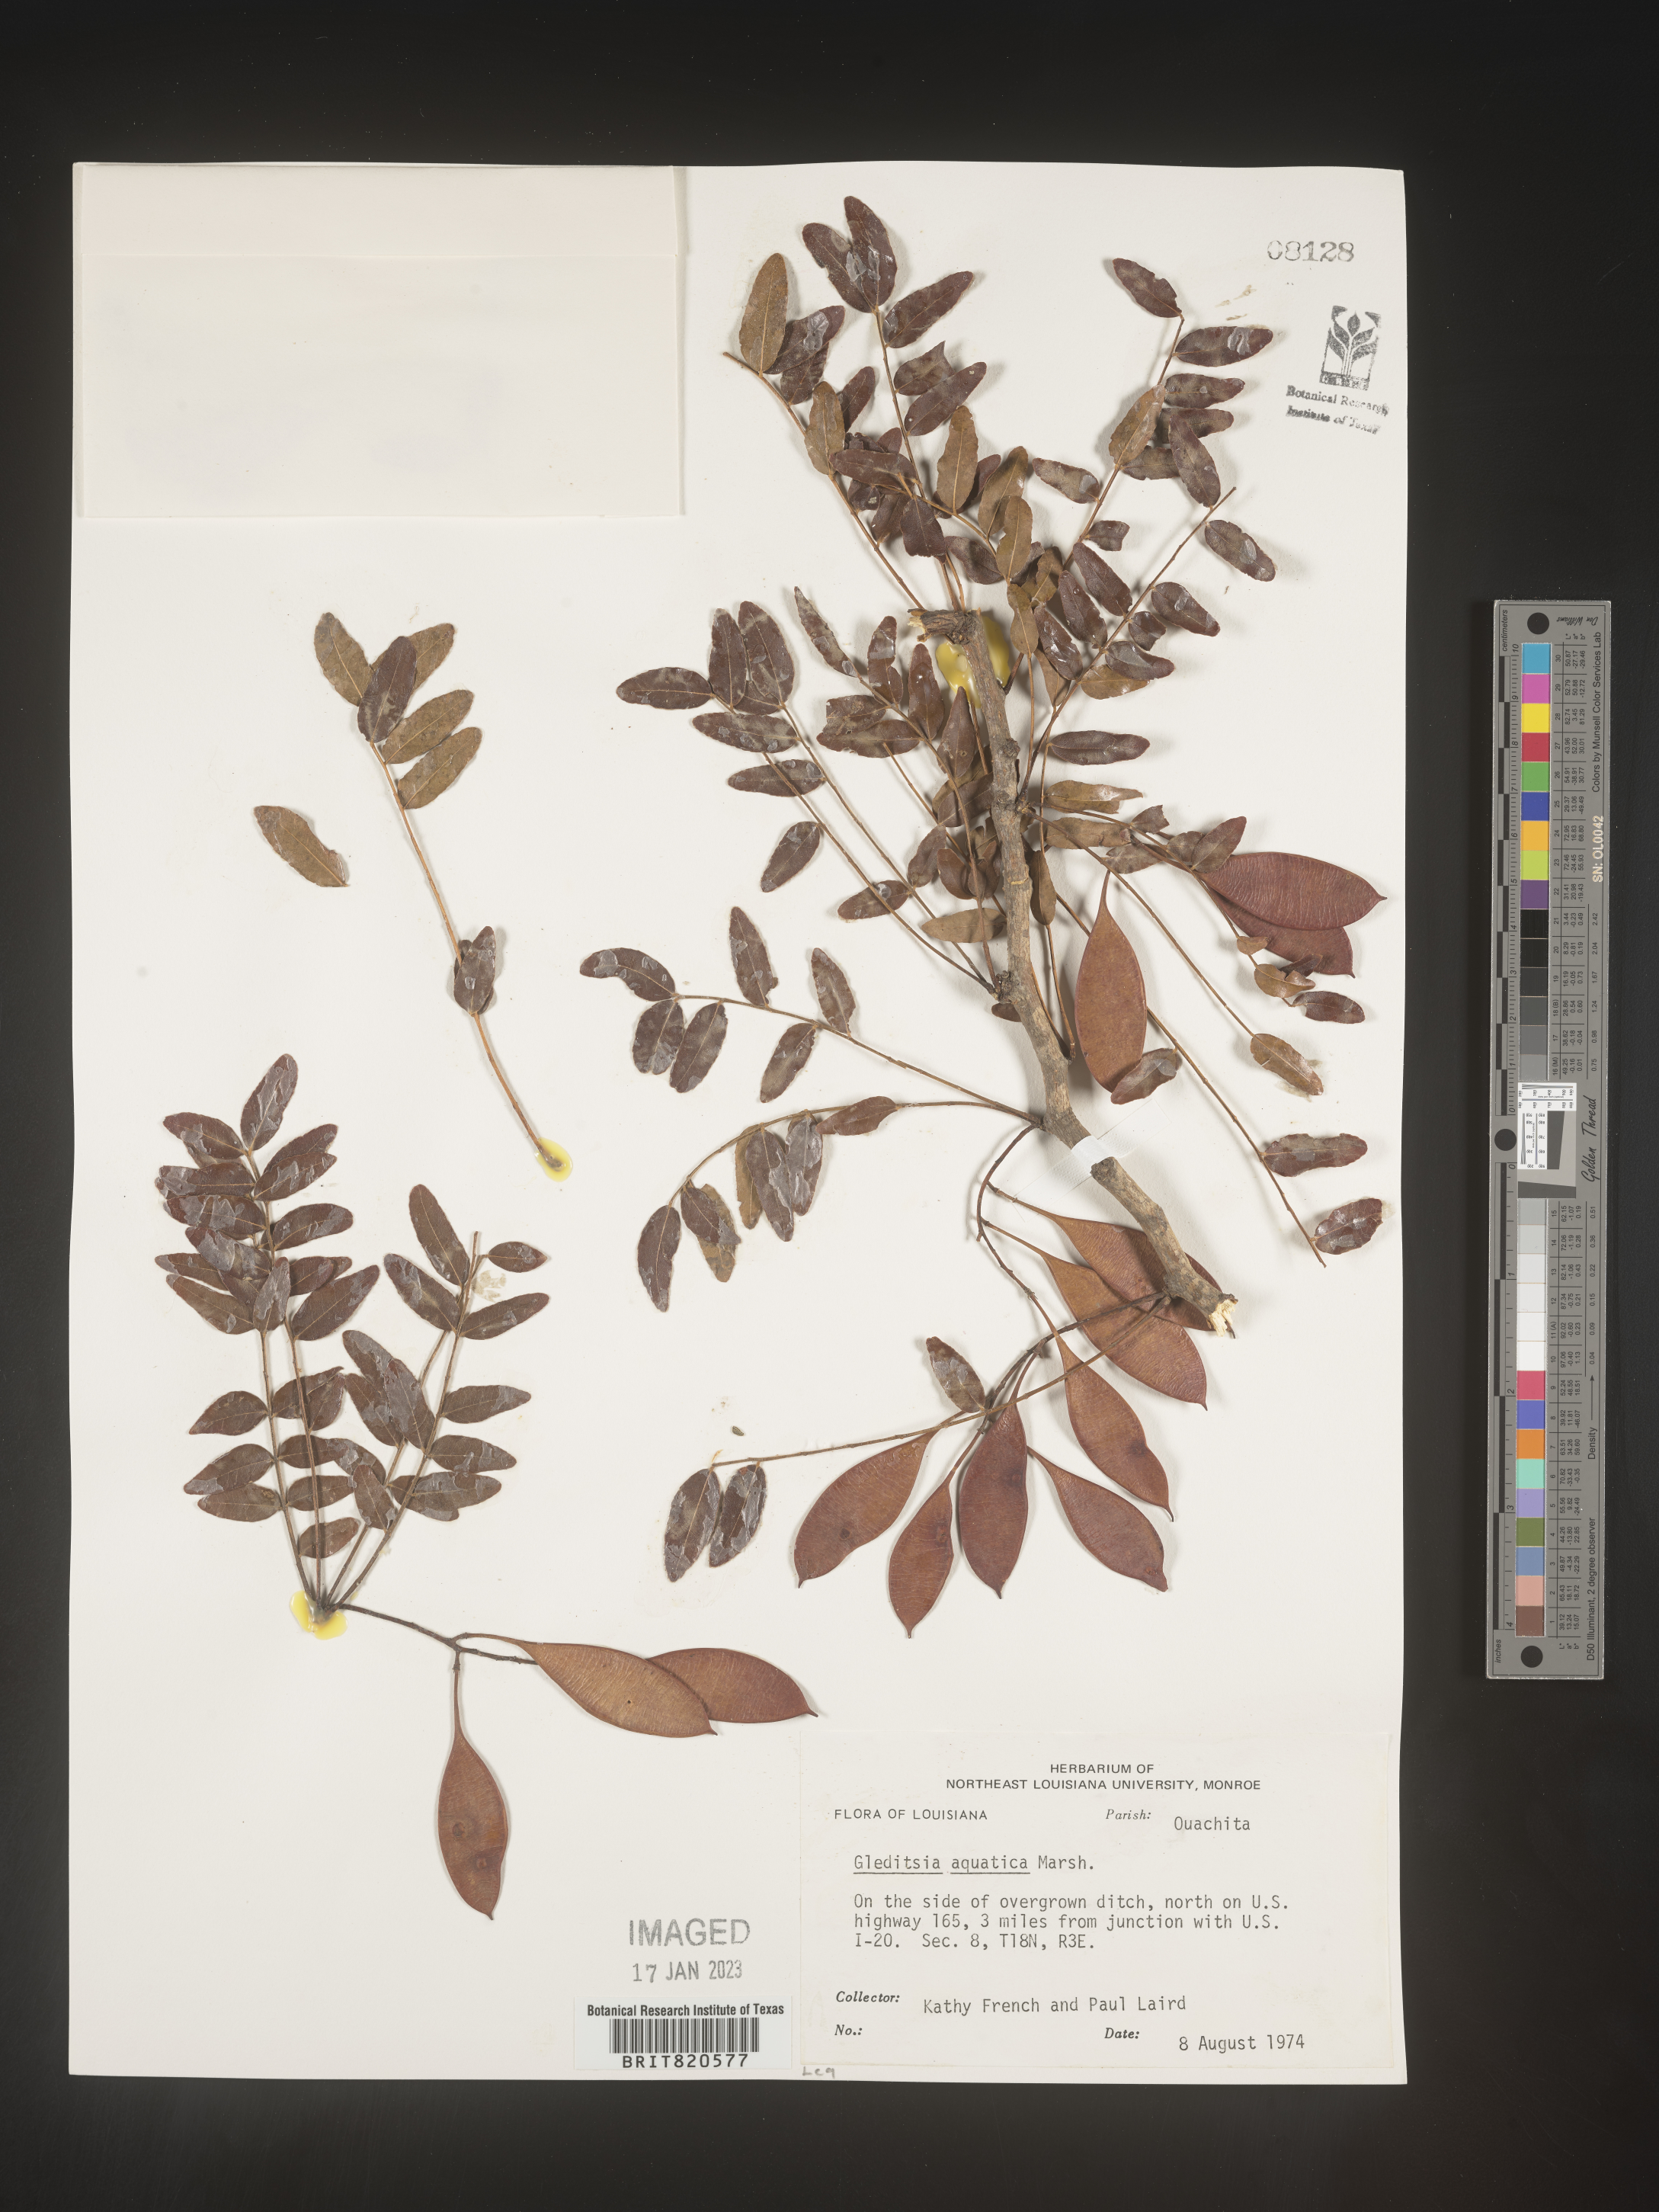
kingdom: Plantae
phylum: Tracheophyta
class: Magnoliopsida
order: Fabales
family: Fabaceae
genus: Gleditsia
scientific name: Gleditsia aquatica
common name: Swamp-locust
